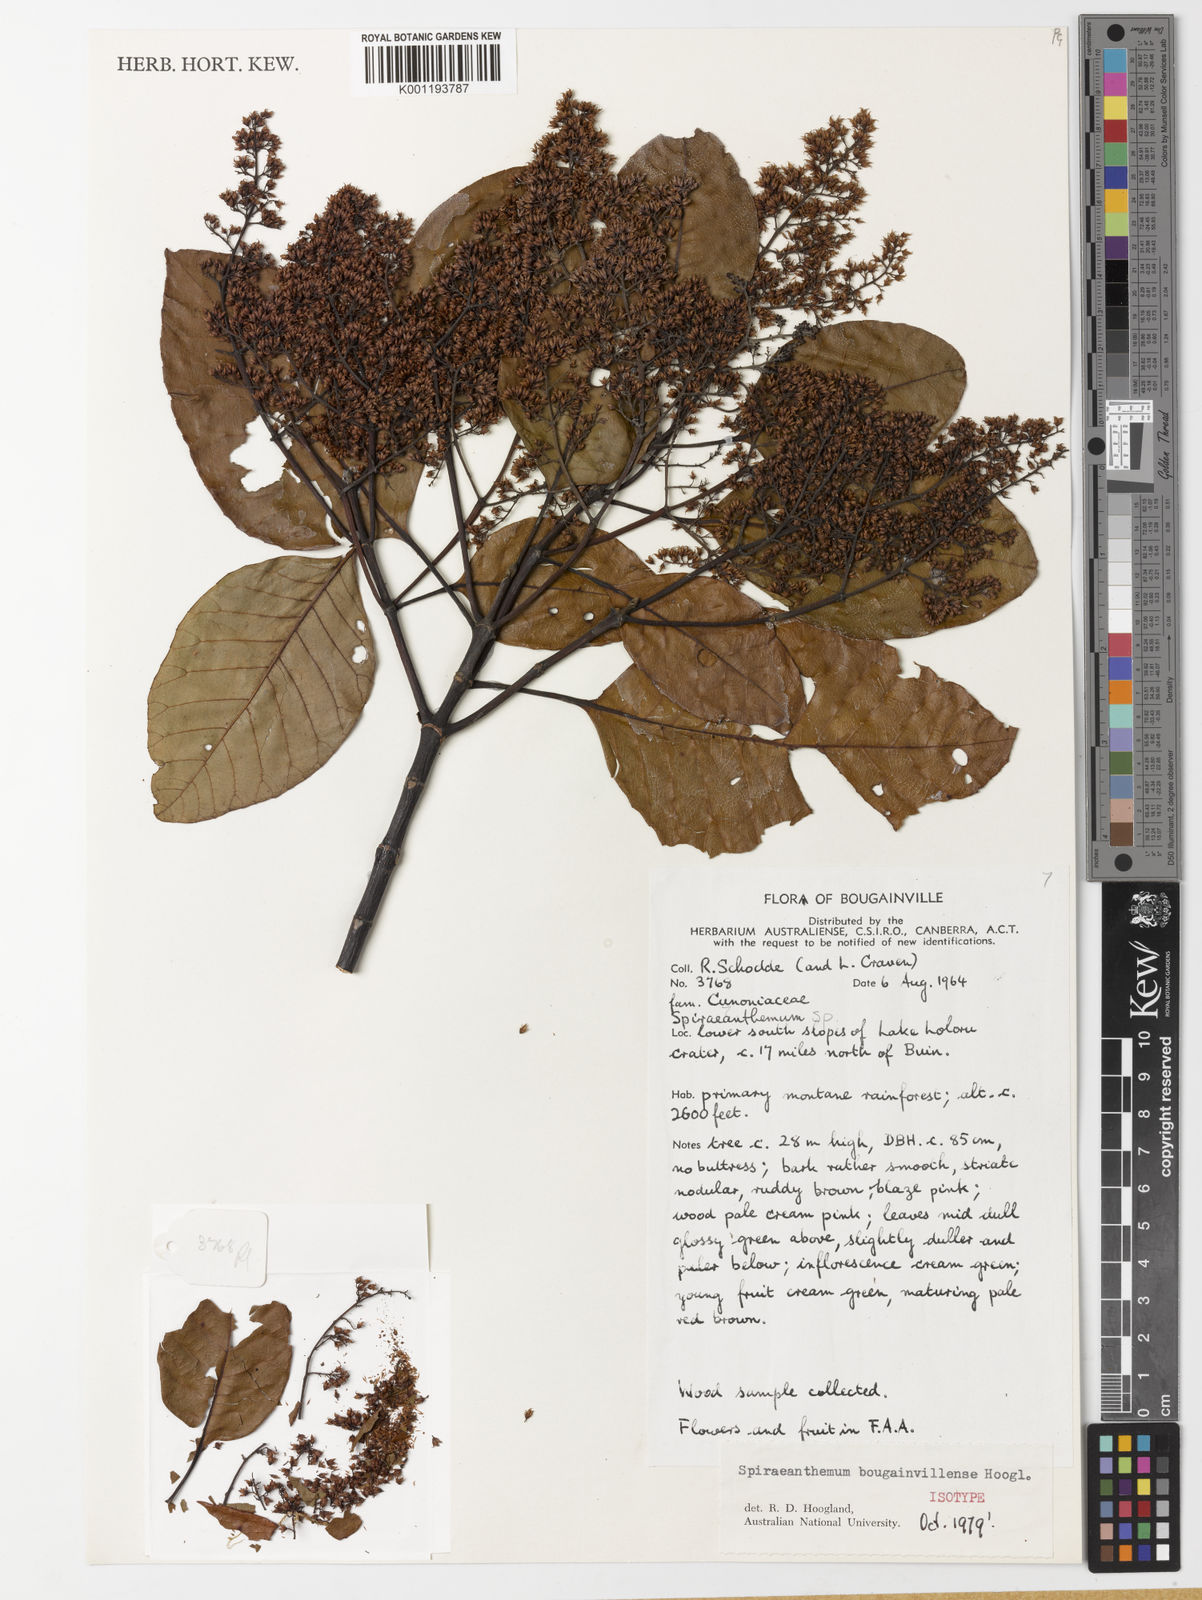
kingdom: Plantae
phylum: Tracheophyta
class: Magnoliopsida
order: Oxalidales
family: Cunoniaceae
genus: Spiraeanthemum
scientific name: Spiraeanthemum bougainvillense
